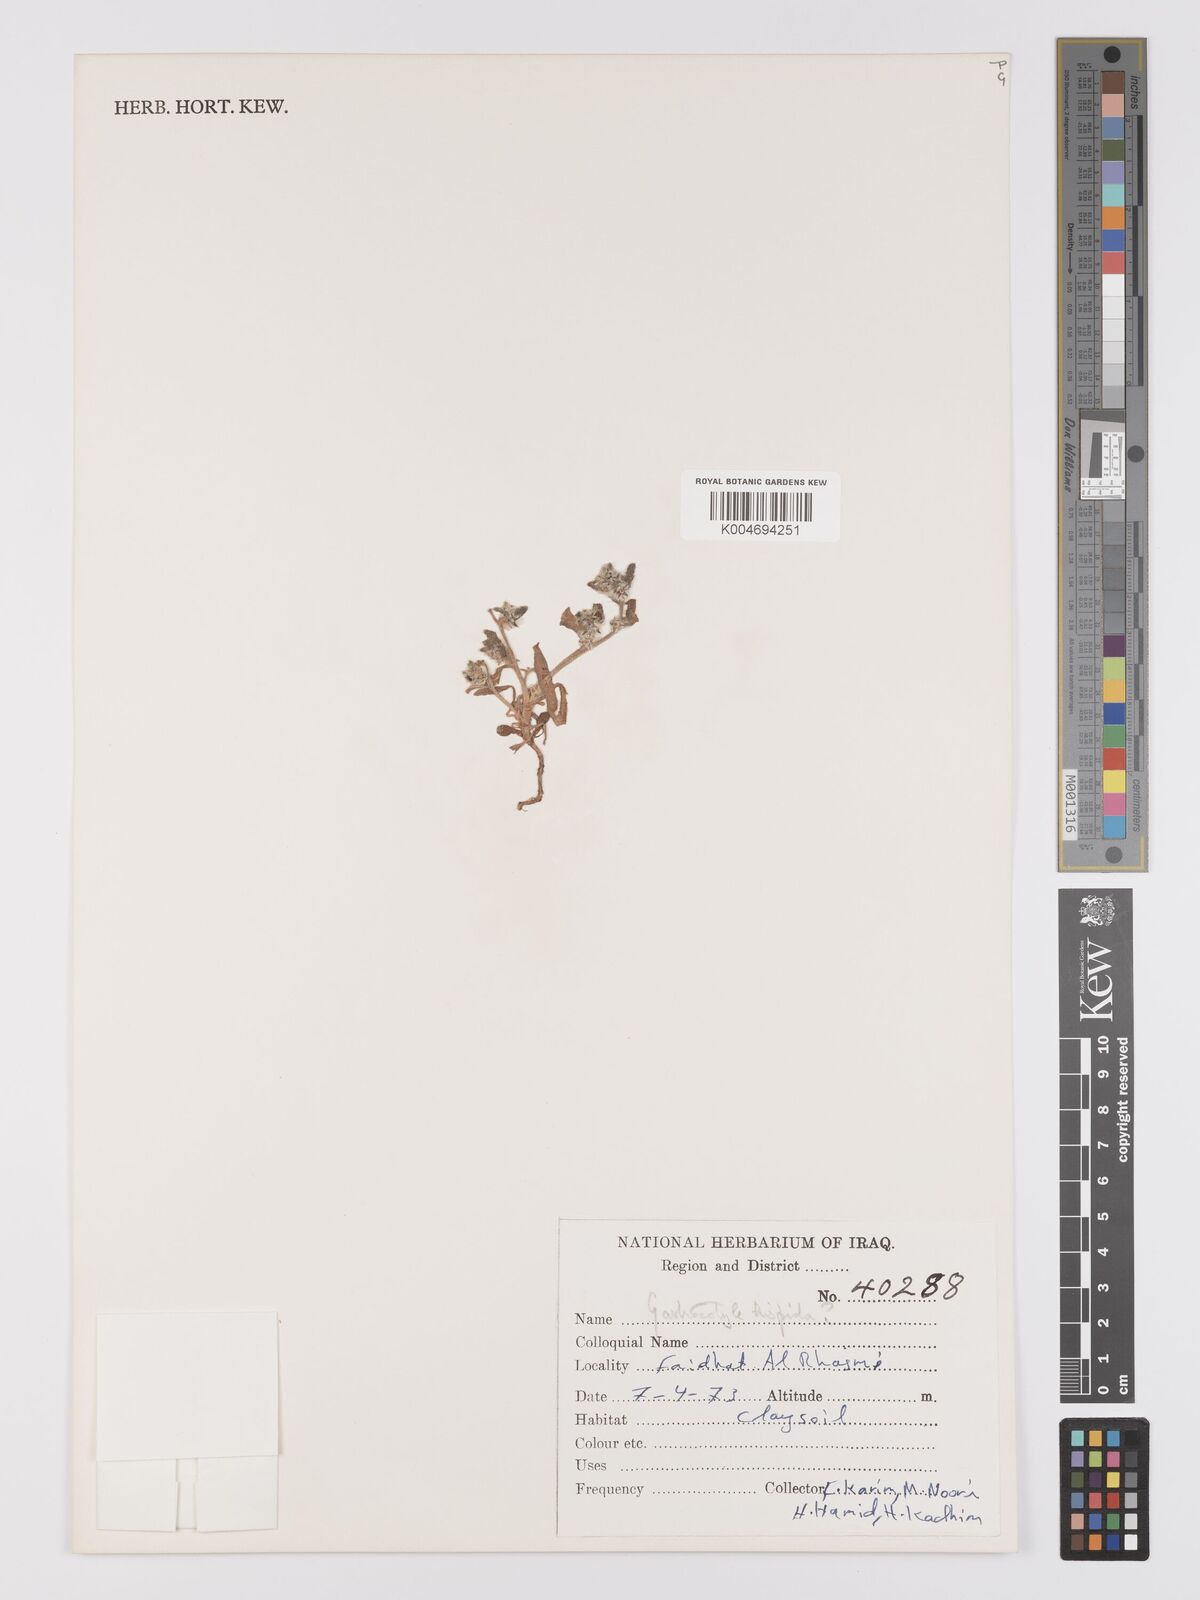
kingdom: Plantae
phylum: Tracheophyta
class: Magnoliopsida
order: Boraginales
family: Boraginaceae
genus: Gastrocotyle
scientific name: Gastrocotyle hispida
